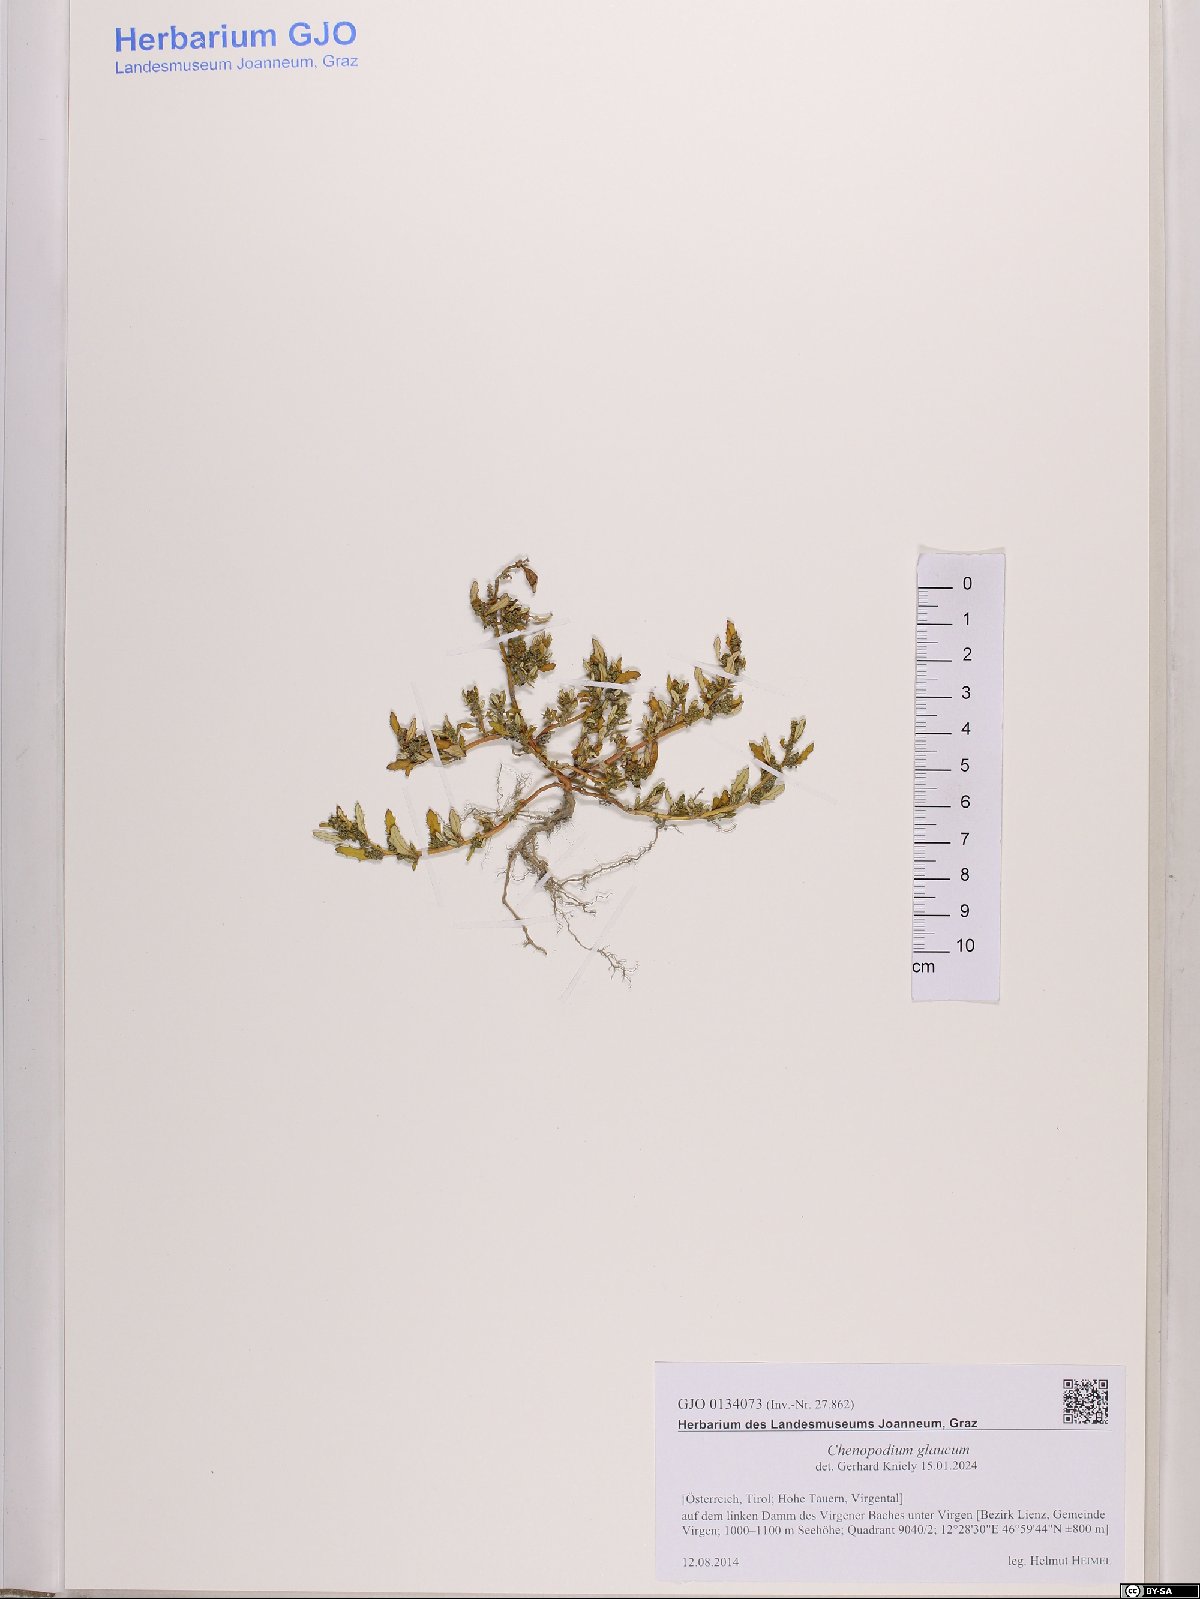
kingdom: Plantae
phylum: Tracheophyta
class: Magnoliopsida
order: Caryophyllales
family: Amaranthaceae
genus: Oxybasis
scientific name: Oxybasis glauca
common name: Glaucous goosefoot
